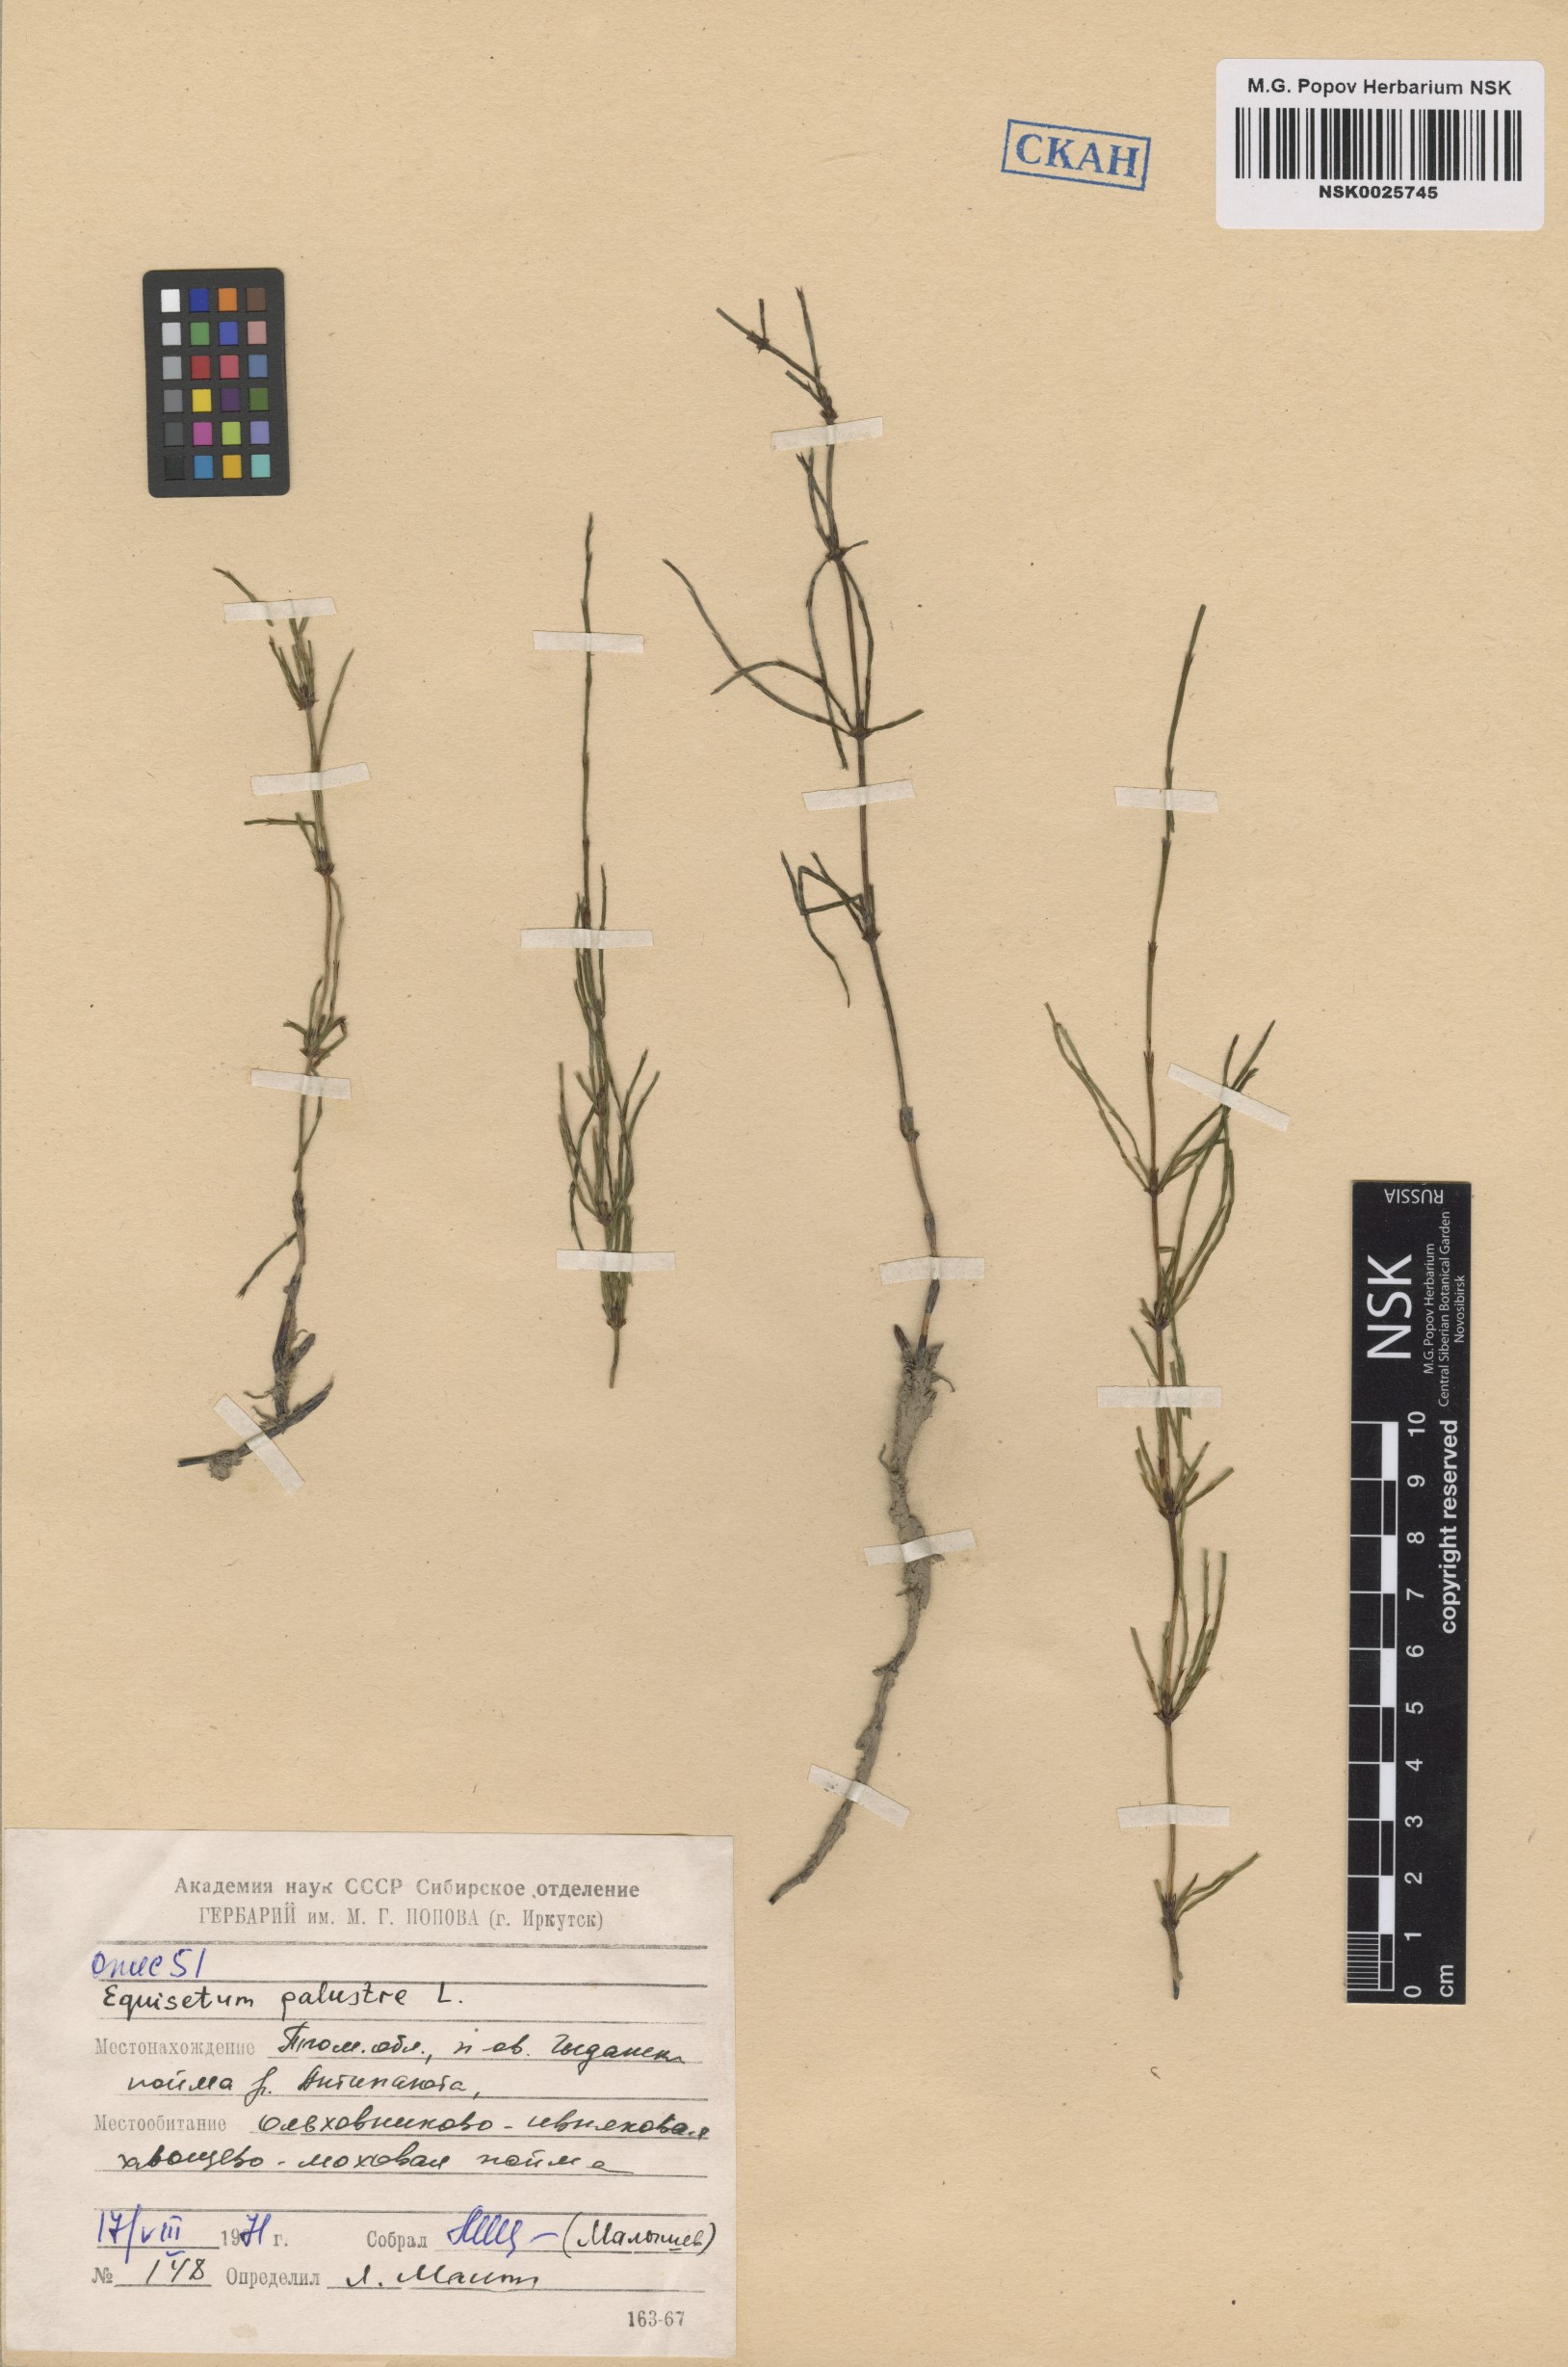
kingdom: Plantae
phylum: Tracheophyta
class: Polypodiopsida
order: Equisetales
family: Equisetaceae
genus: Equisetum
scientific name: Equisetum palustre
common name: Marsh horsetail
